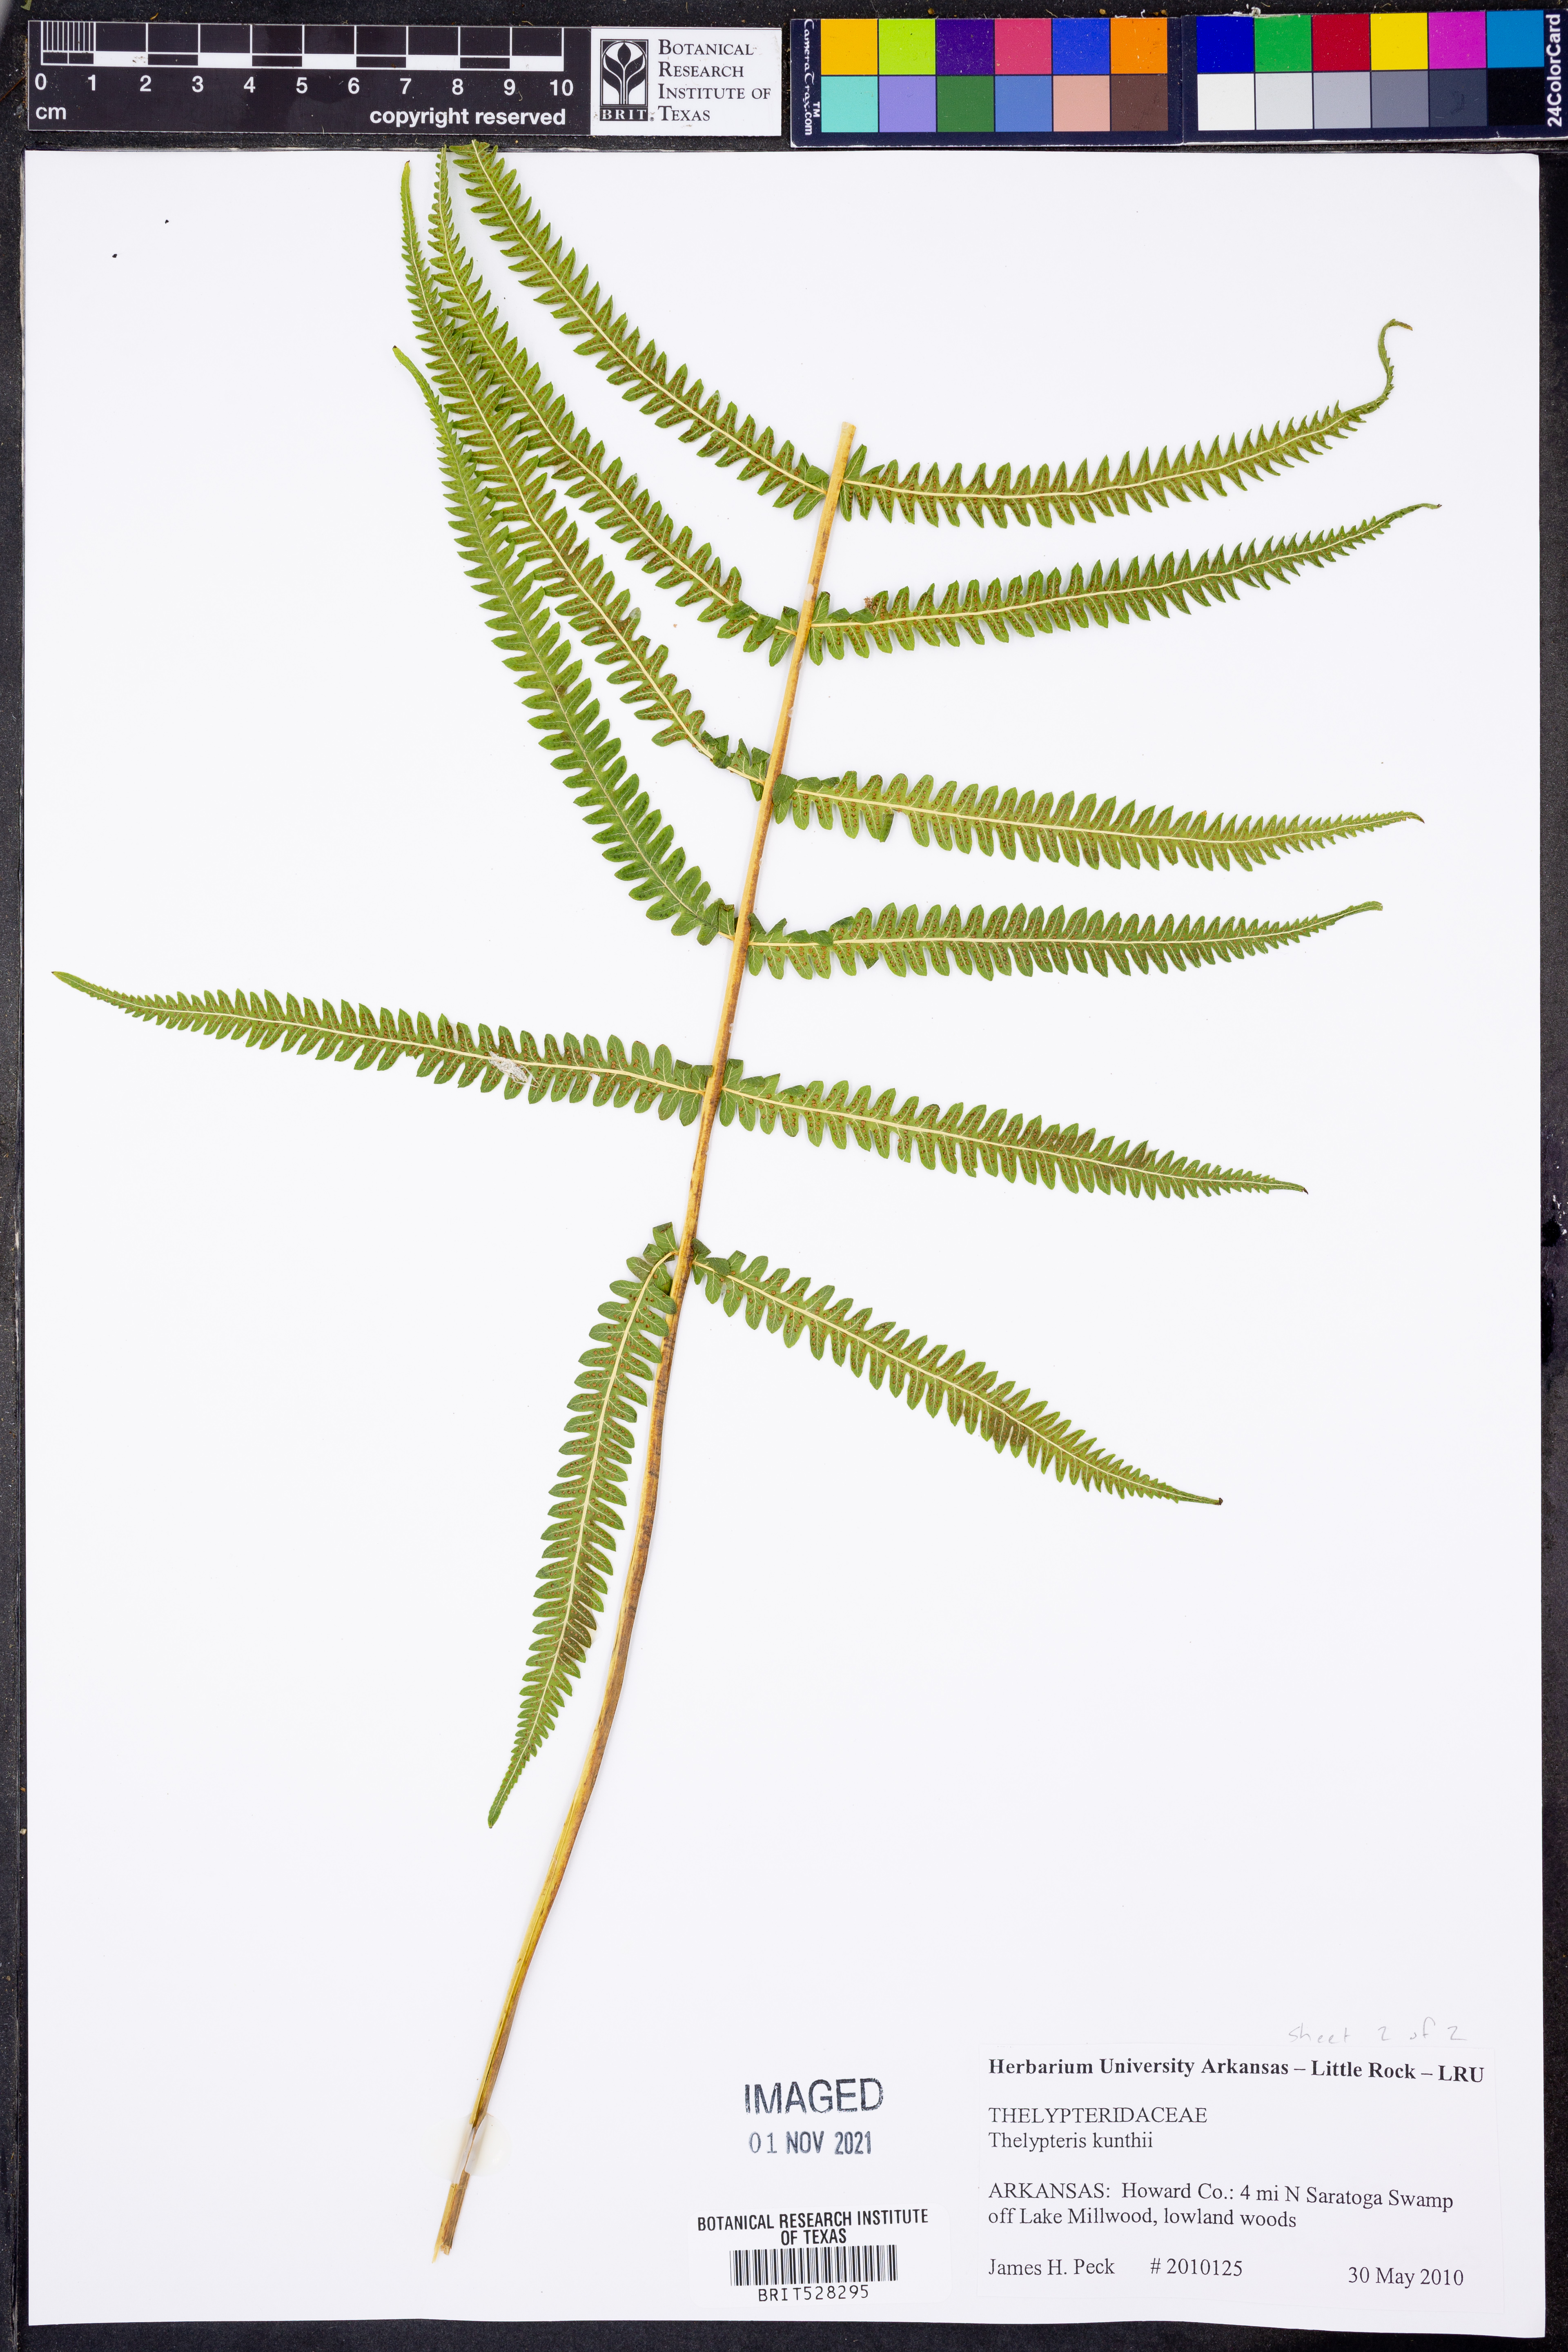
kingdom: Plantae
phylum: Tracheophyta
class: Polypodiopsida
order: Polypodiales
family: Thelypteridaceae
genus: Pelazoneuron
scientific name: Pelazoneuron kunthii
